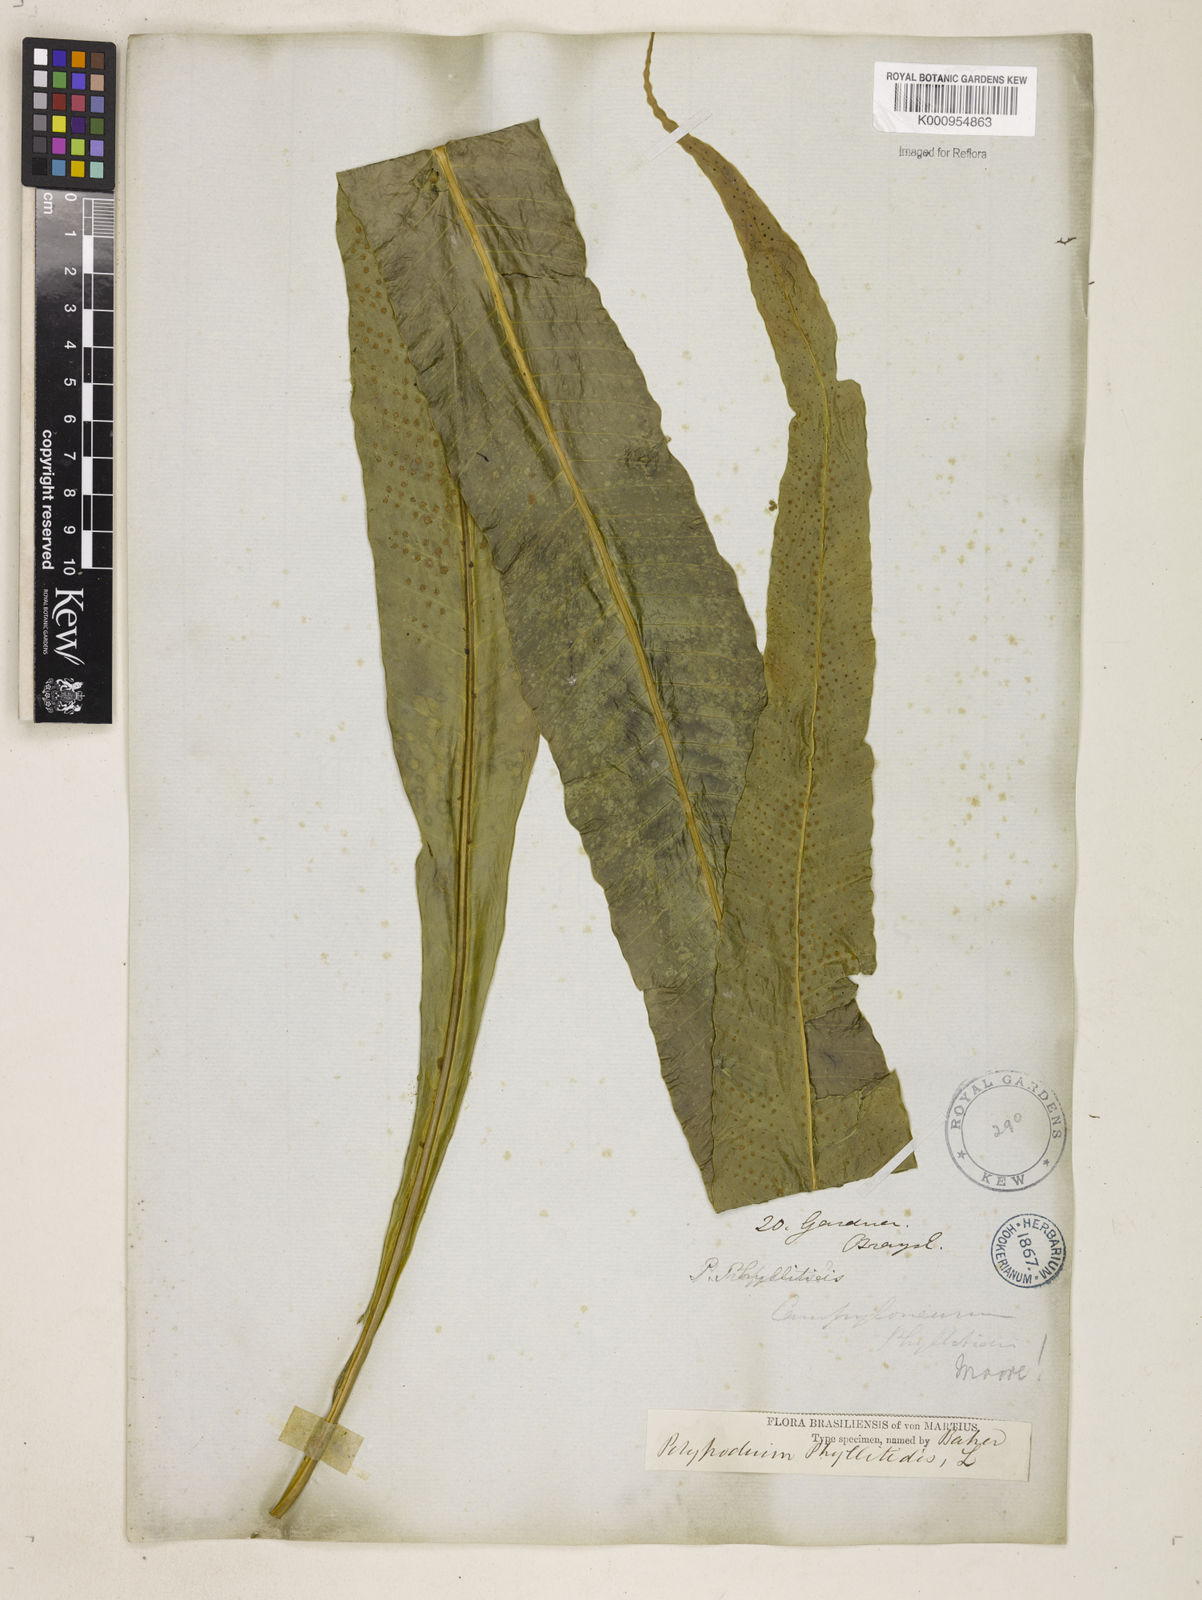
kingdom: Plantae
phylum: Tracheophyta
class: Polypodiopsida
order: Polypodiales
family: Polypodiaceae
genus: Campyloneurum
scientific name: Campyloneurum phyllitidis
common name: Cow-tongue fern
